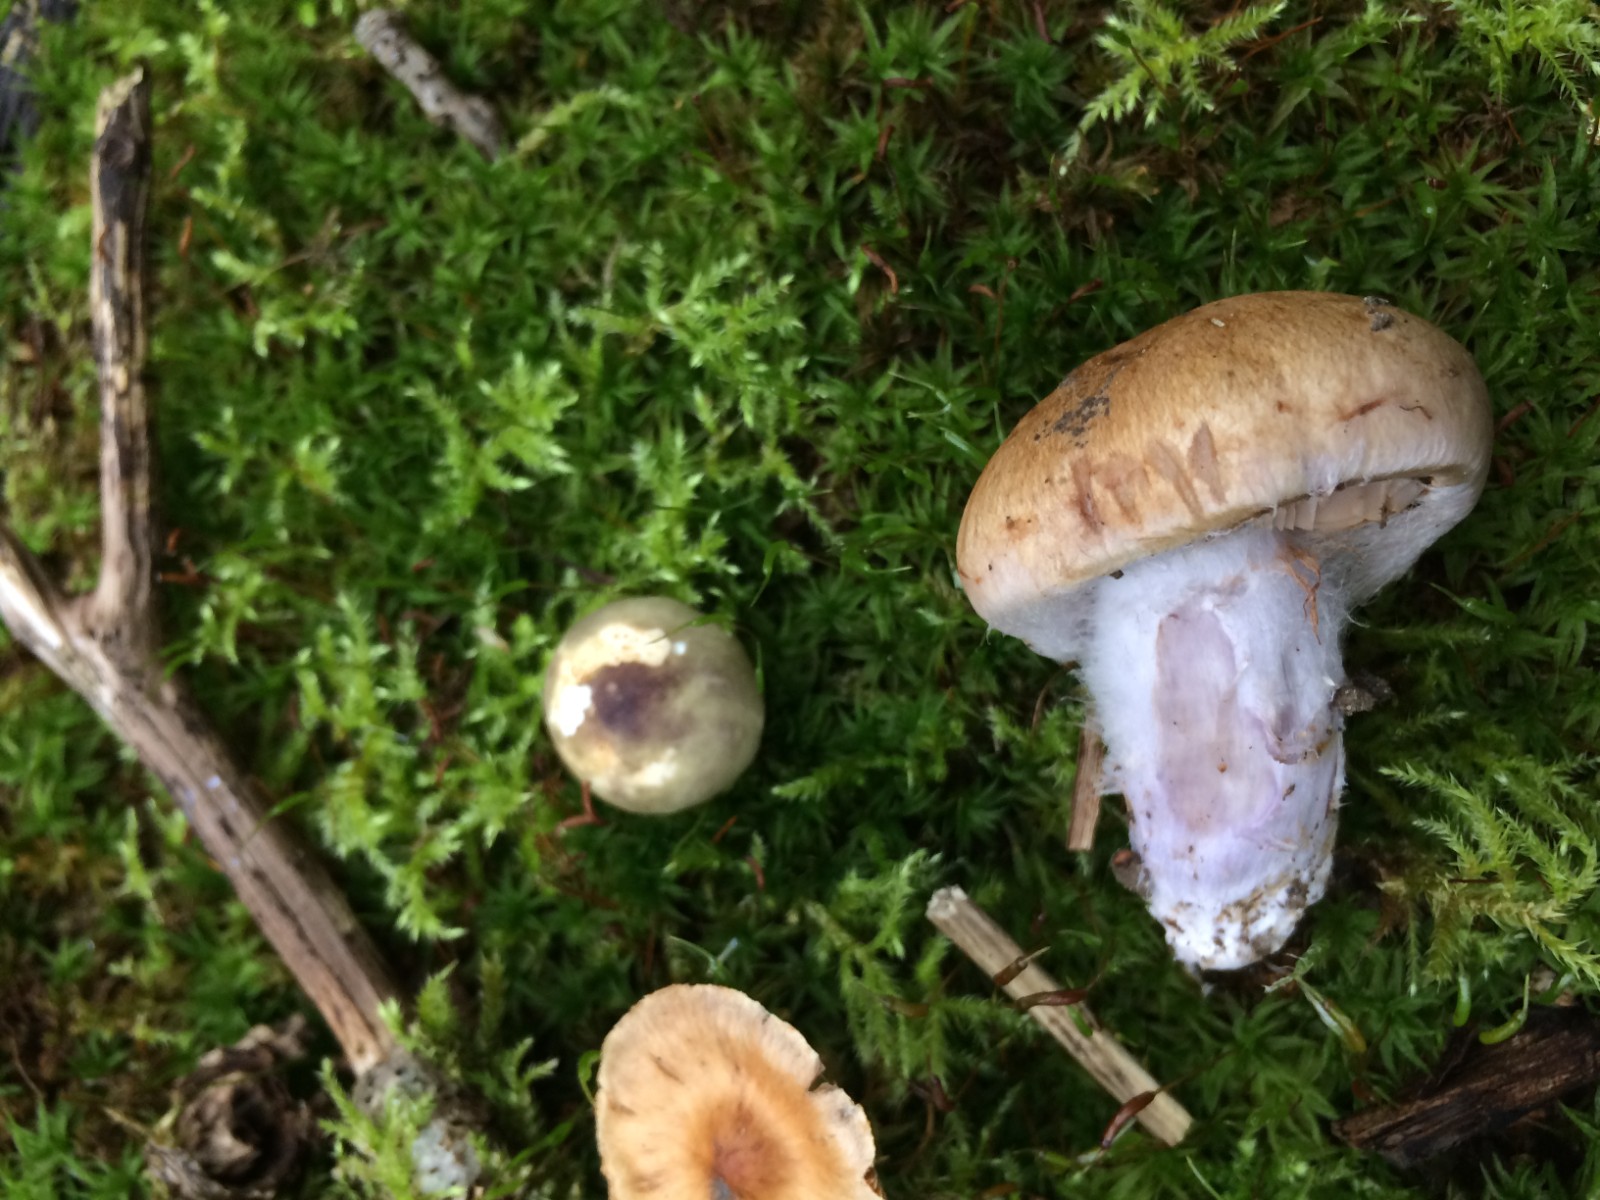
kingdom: Fungi
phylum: Basidiomycota
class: Agaricomycetes
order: Agaricales
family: Cortinariaceae
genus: Cortinarius
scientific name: Cortinarius
